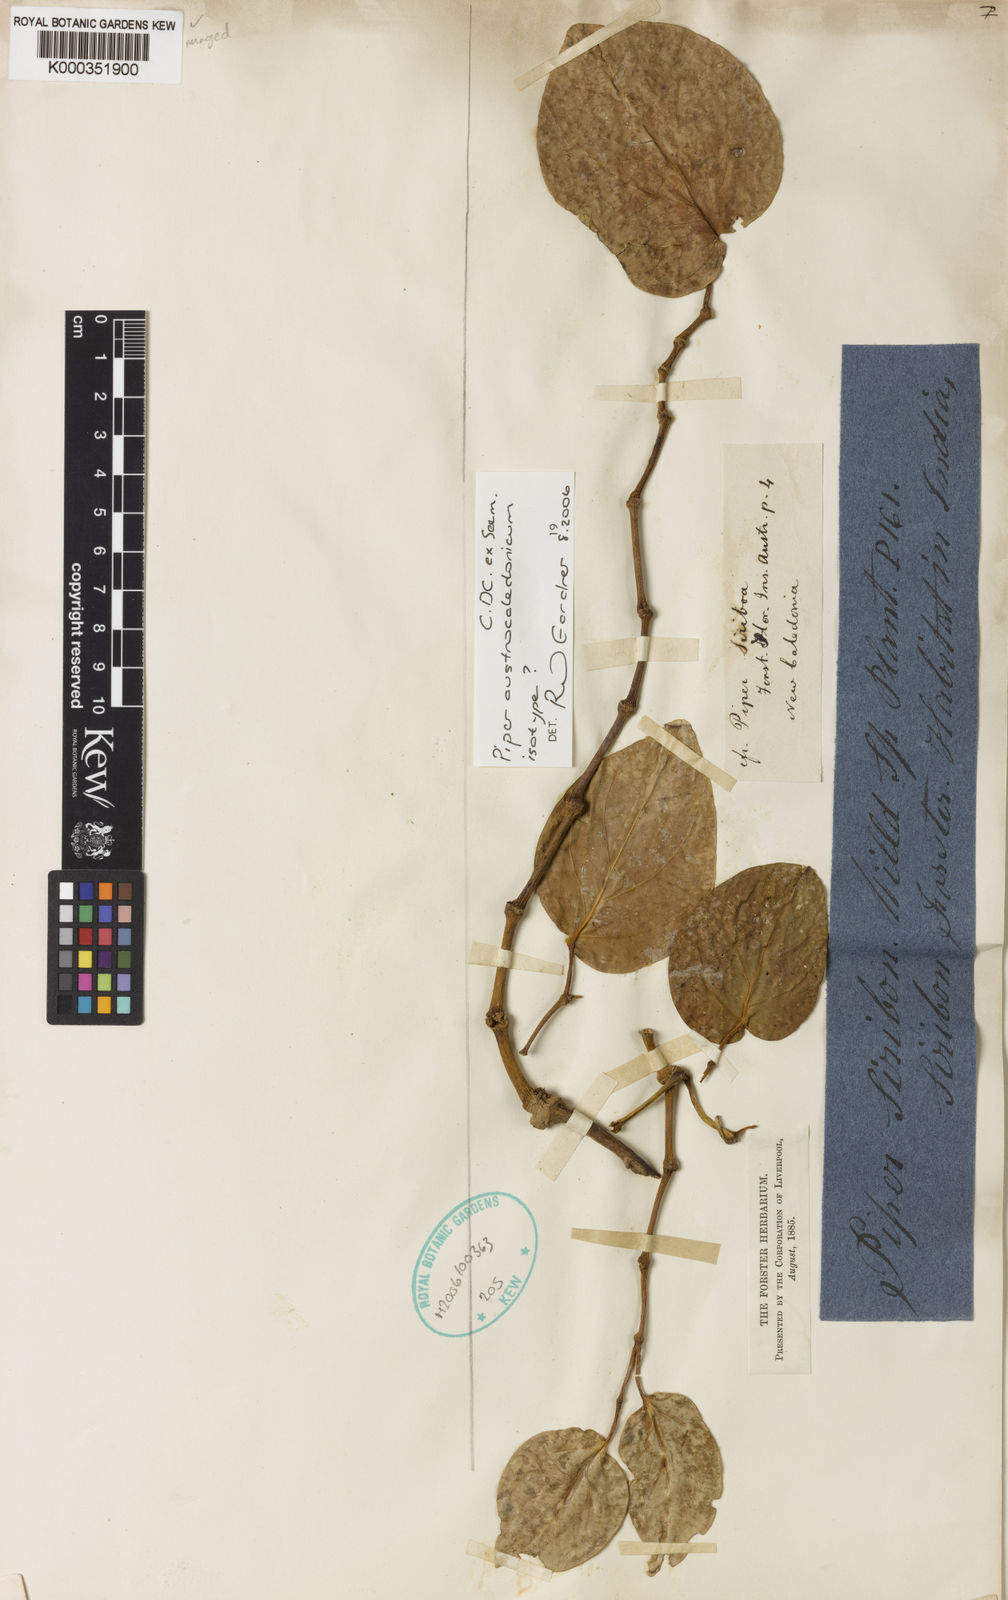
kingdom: Plantae
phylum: Tracheophyta
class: Magnoliopsida
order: Piperales
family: Piperaceae
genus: Piper
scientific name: Piper
